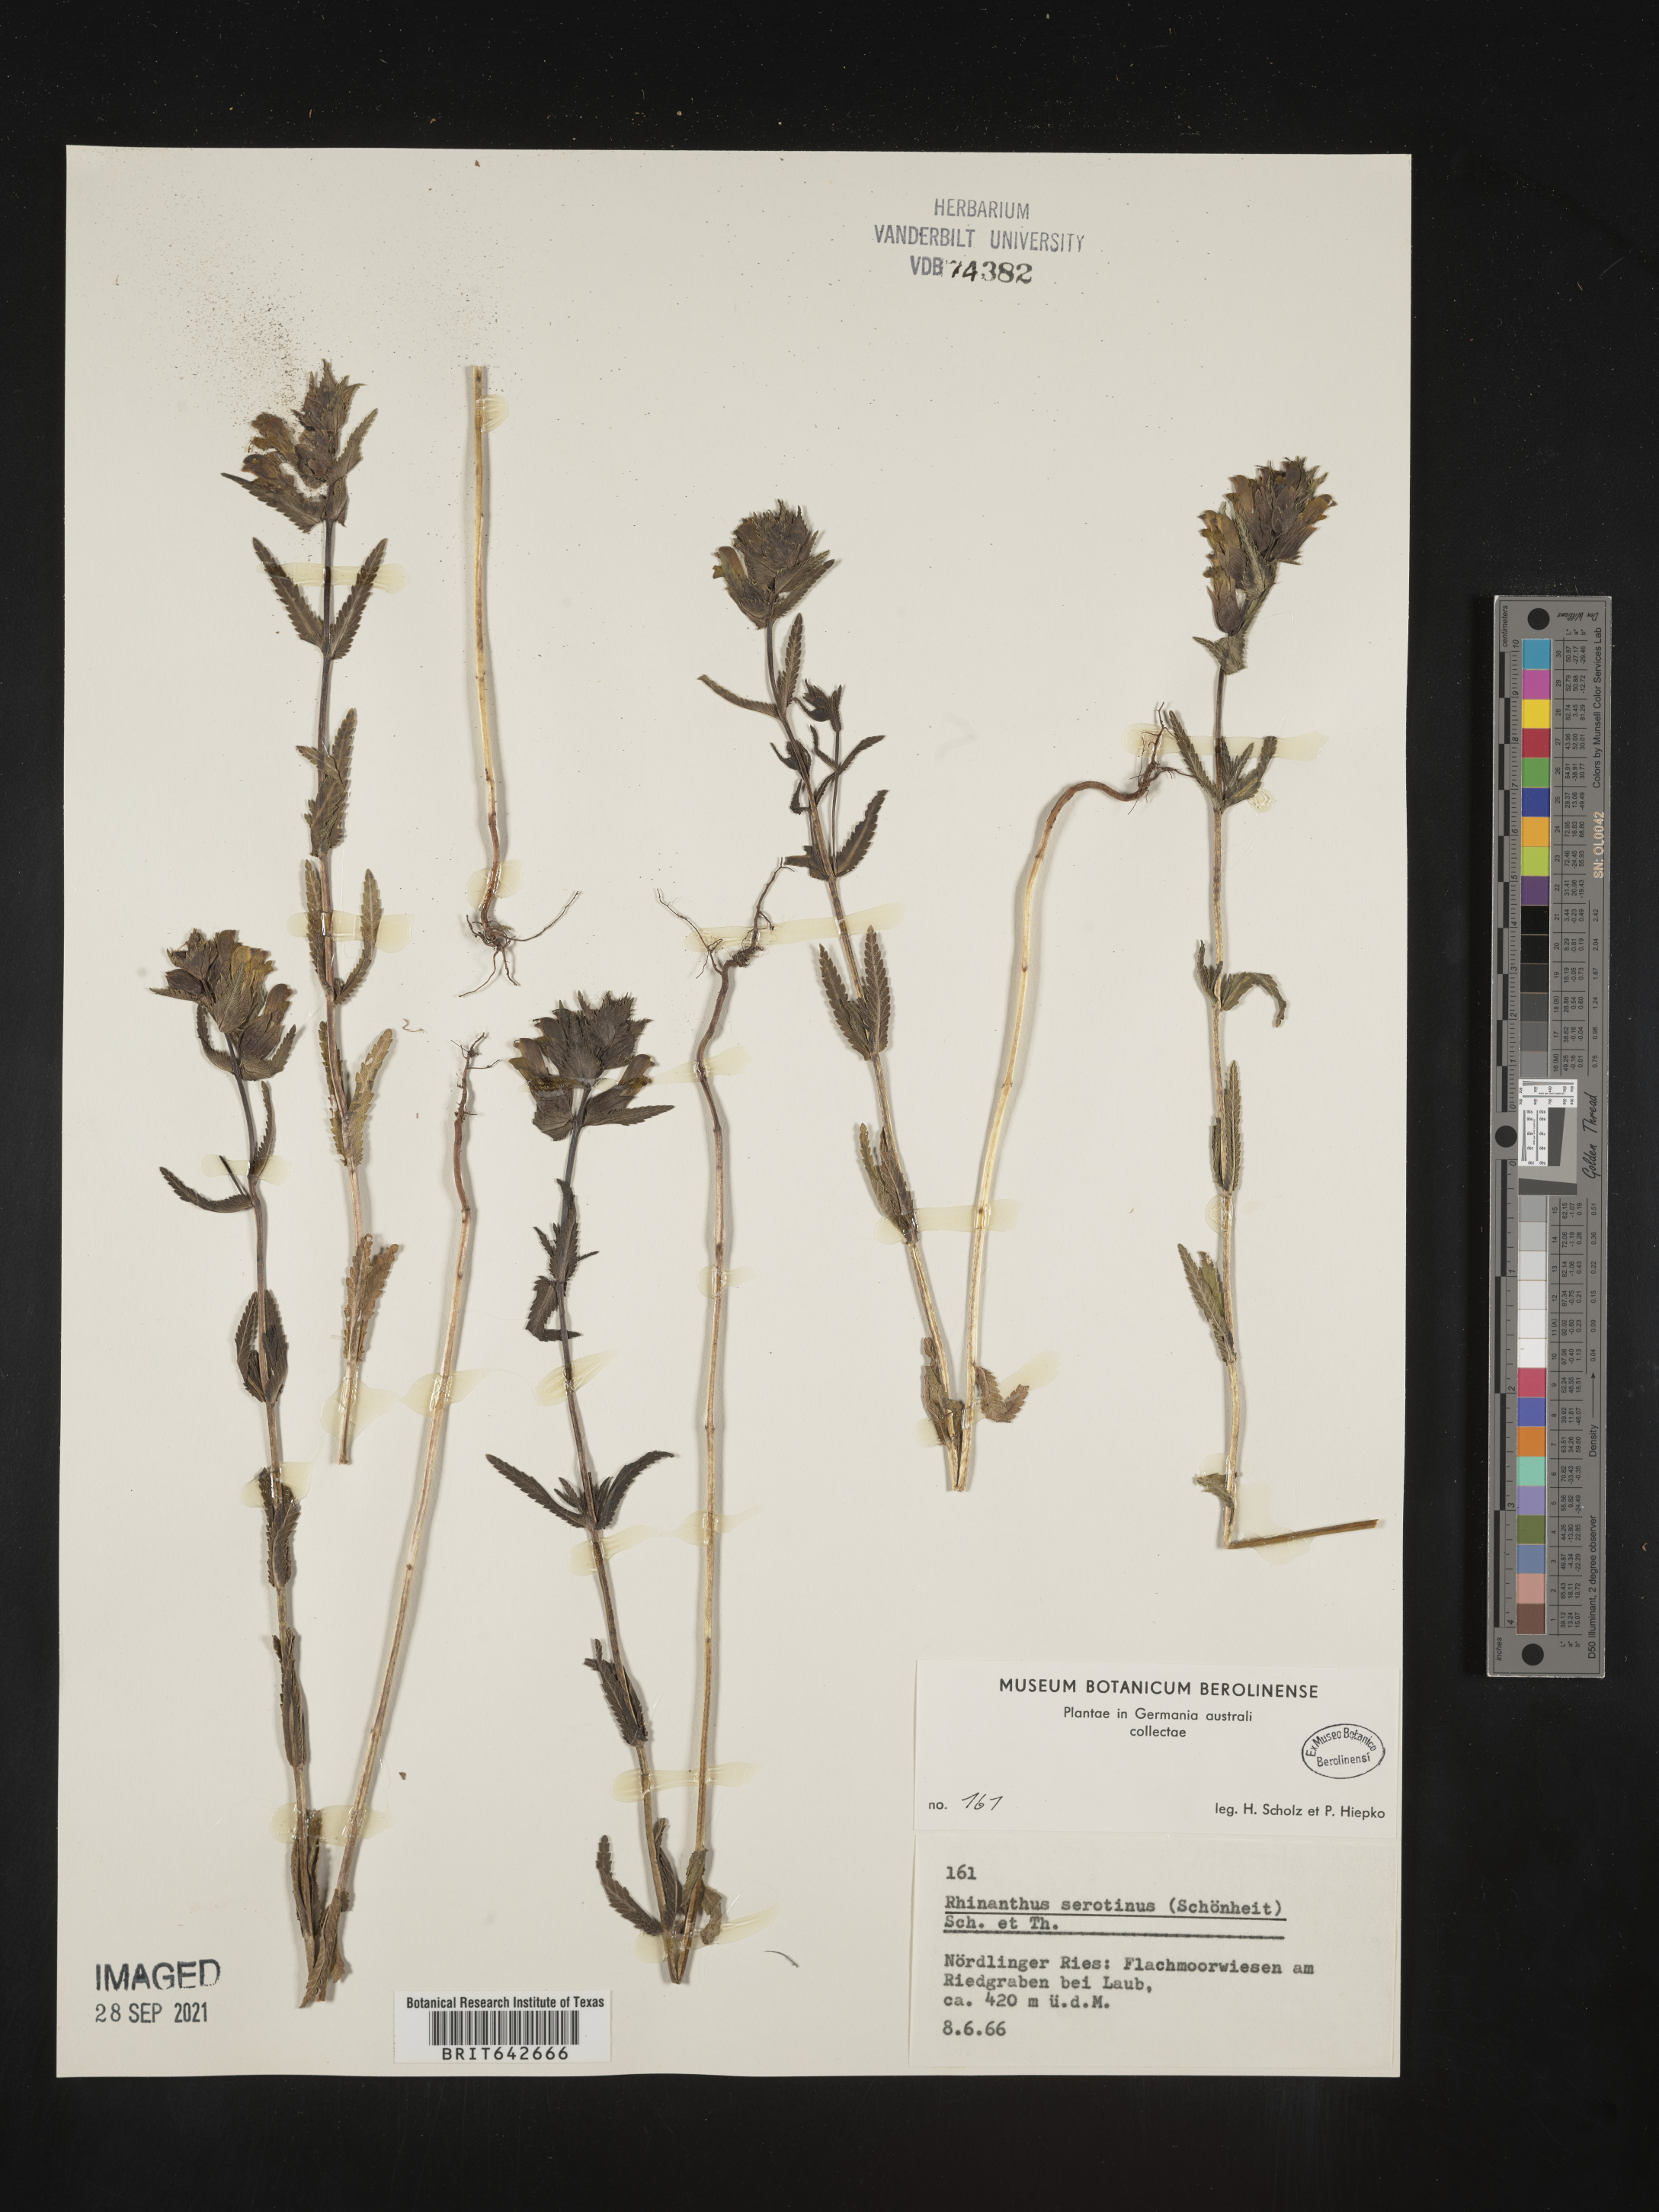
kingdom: Plantae
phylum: Tracheophyta
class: Magnoliopsida
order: Lamiales
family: Orobanchaceae
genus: Rhinanthus
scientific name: Rhinanthus
